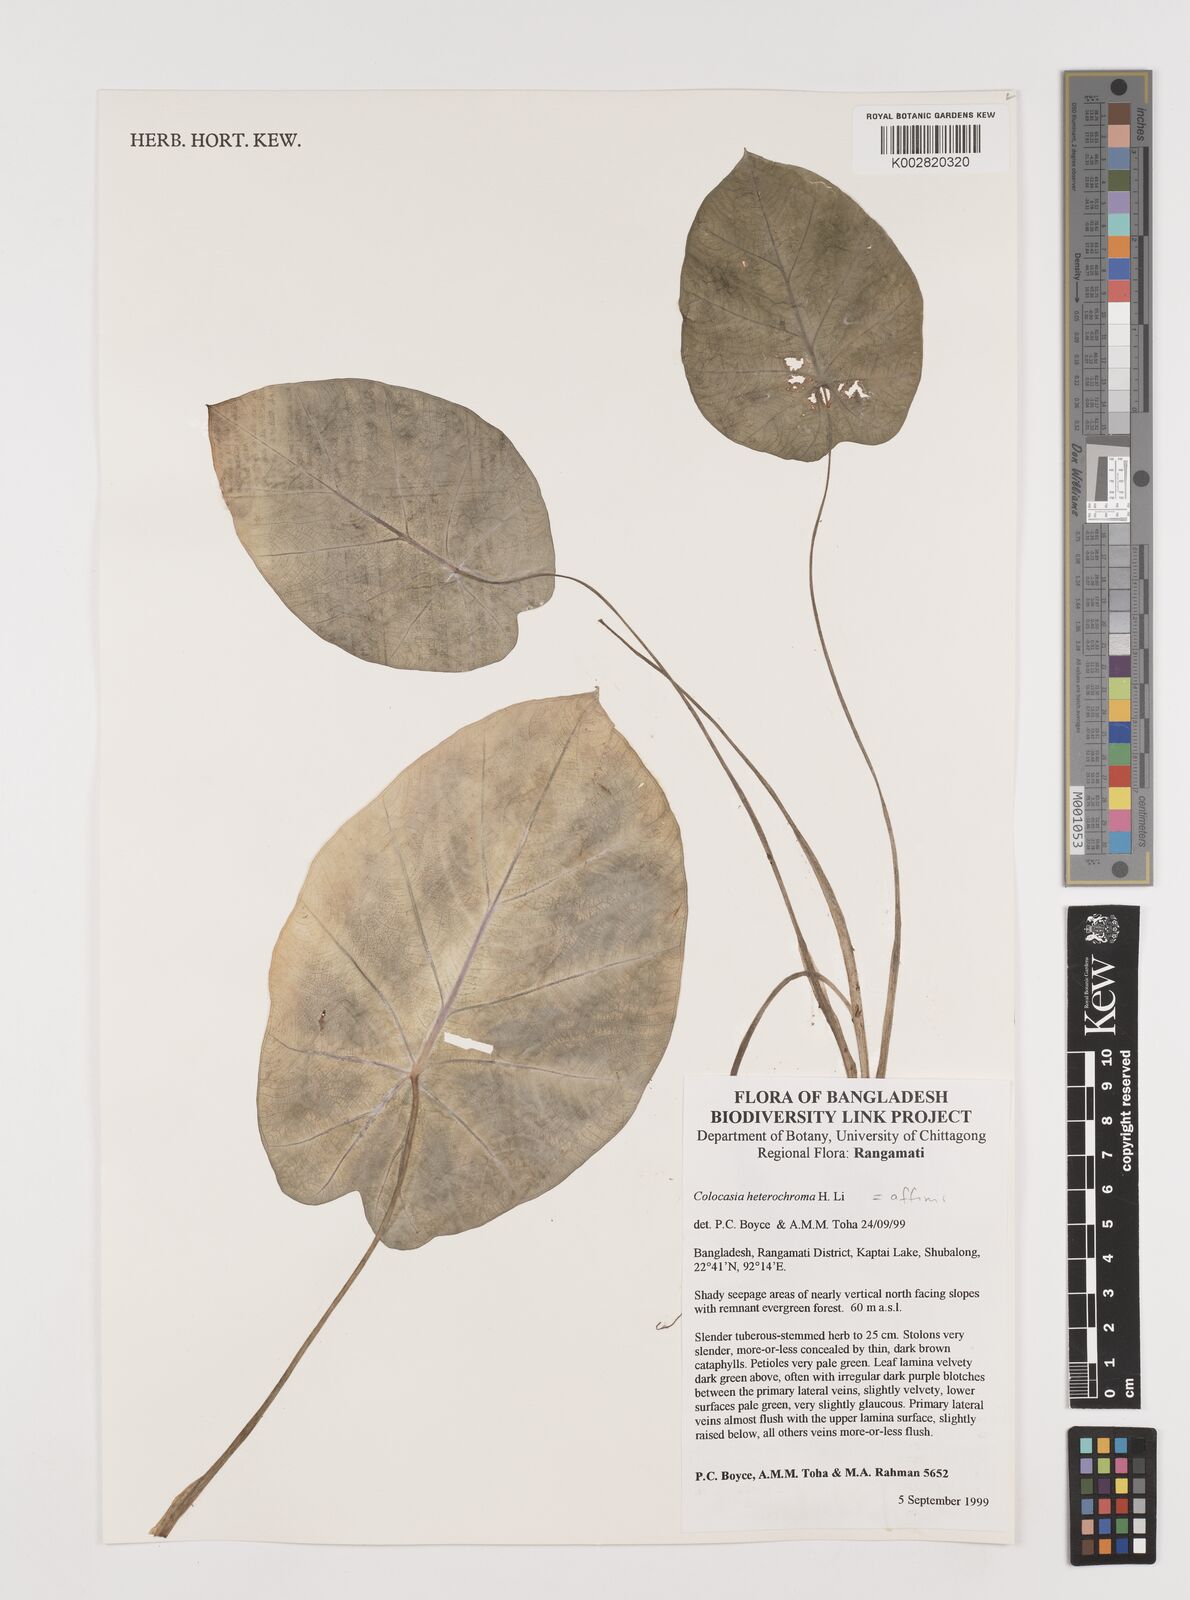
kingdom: Plantae
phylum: Tracheophyta
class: Liliopsida
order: Alismatales
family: Araceae
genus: Colocasia
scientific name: Colocasia affinis
